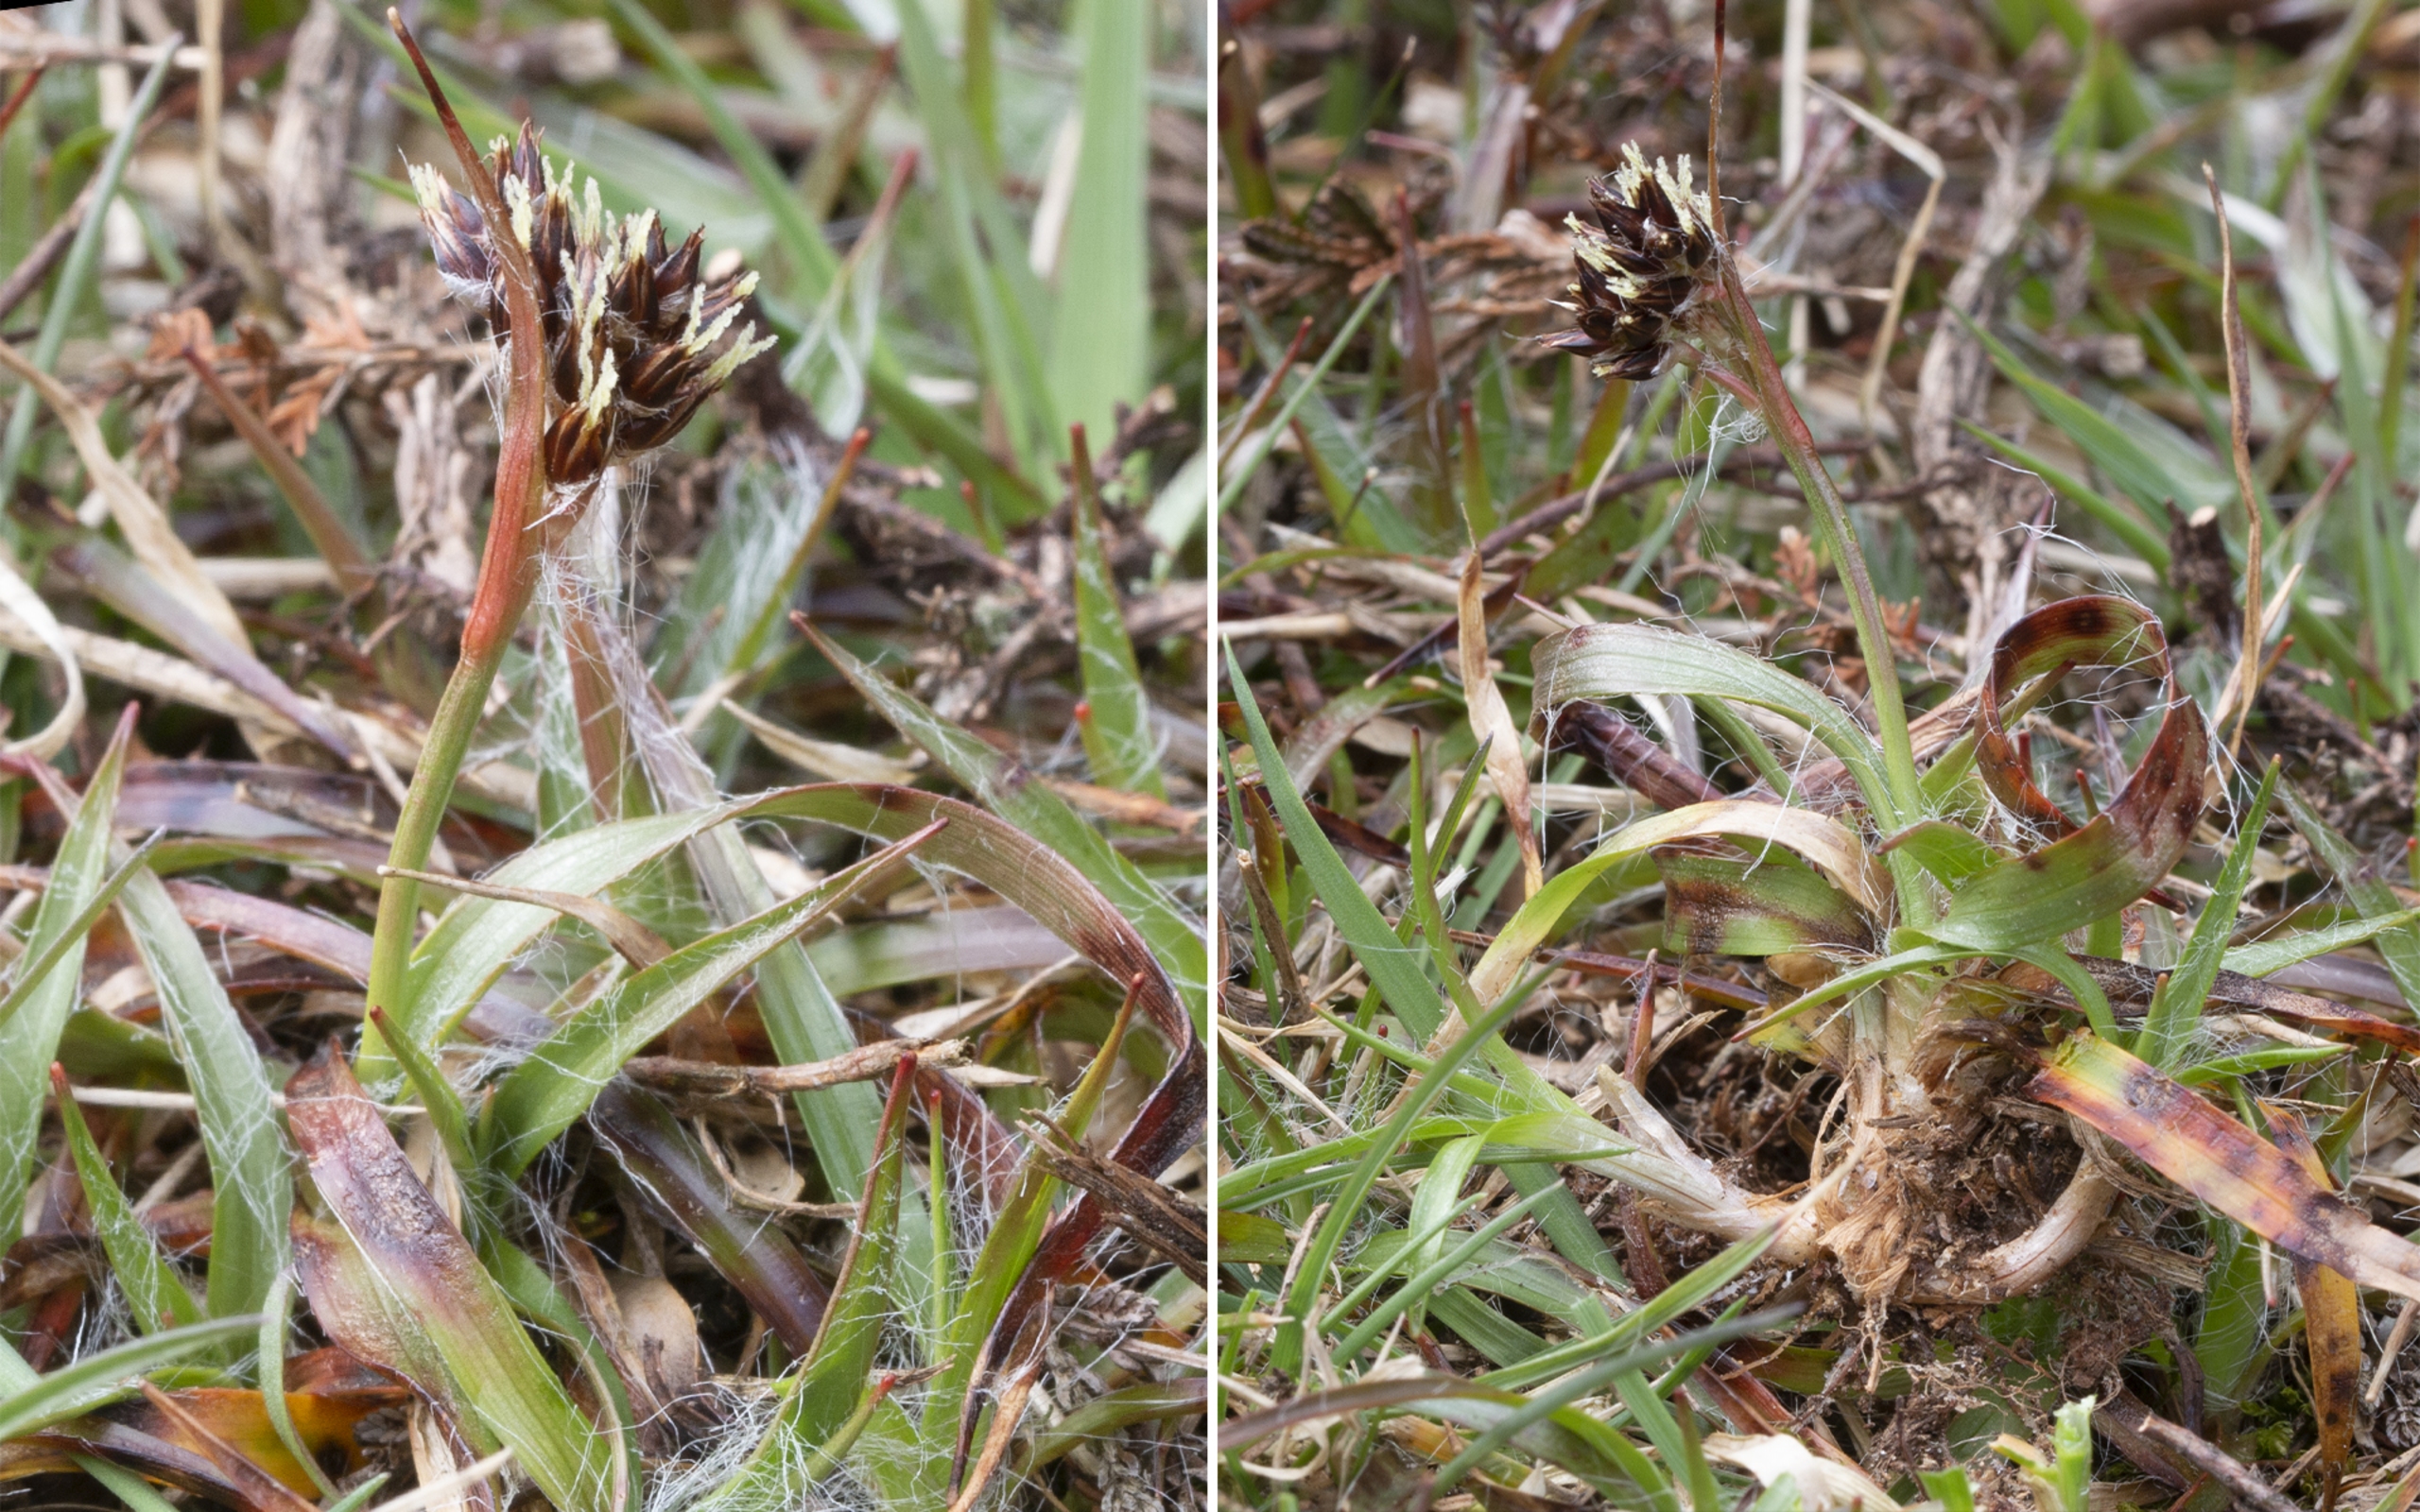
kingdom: Plantae
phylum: Tracheophyta
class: Liliopsida
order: Poales
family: Juncaceae
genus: Luzula
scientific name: Luzula campestris
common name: Mark-frytle
